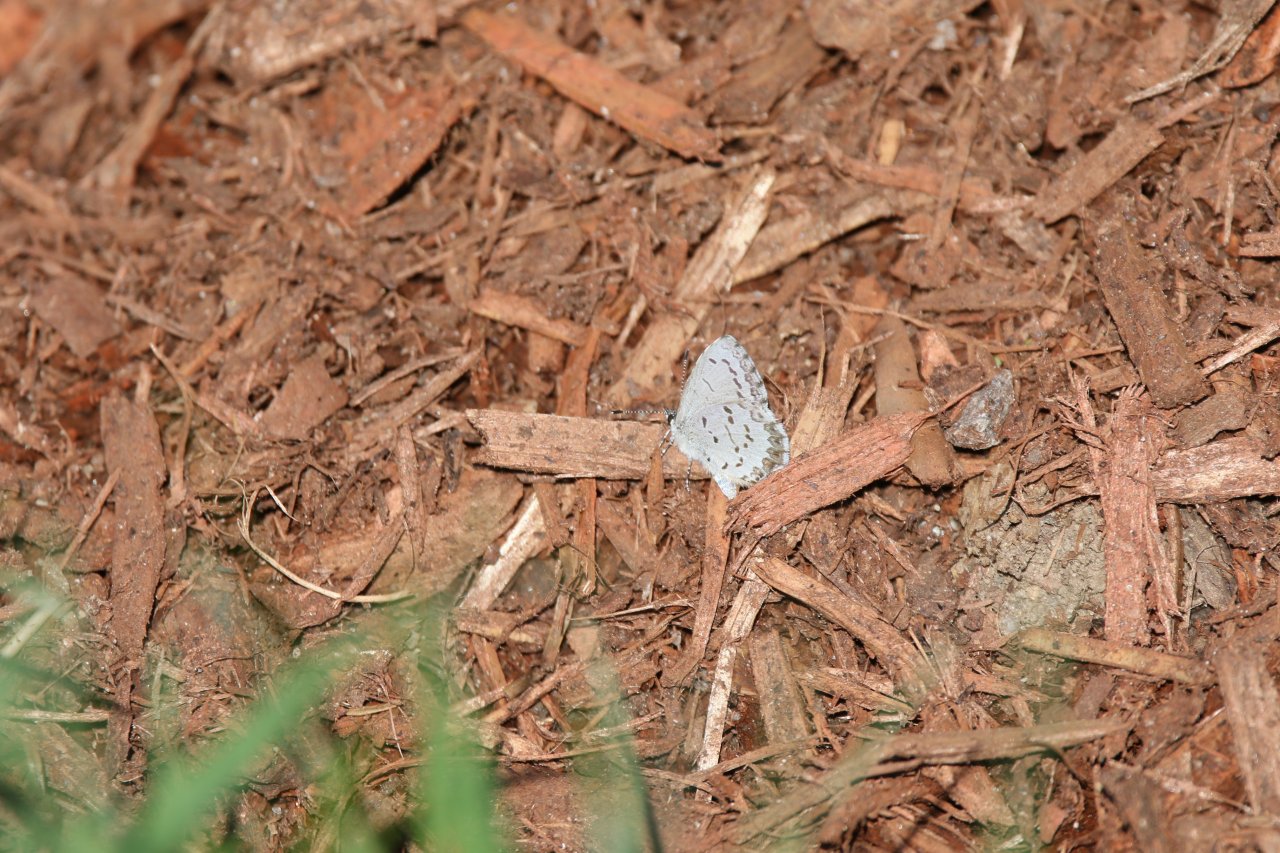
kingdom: Animalia
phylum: Arthropoda
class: Insecta
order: Lepidoptera
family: Lycaenidae
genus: Celastrina
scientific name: Celastrina lucia
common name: Northern Spring Azure
